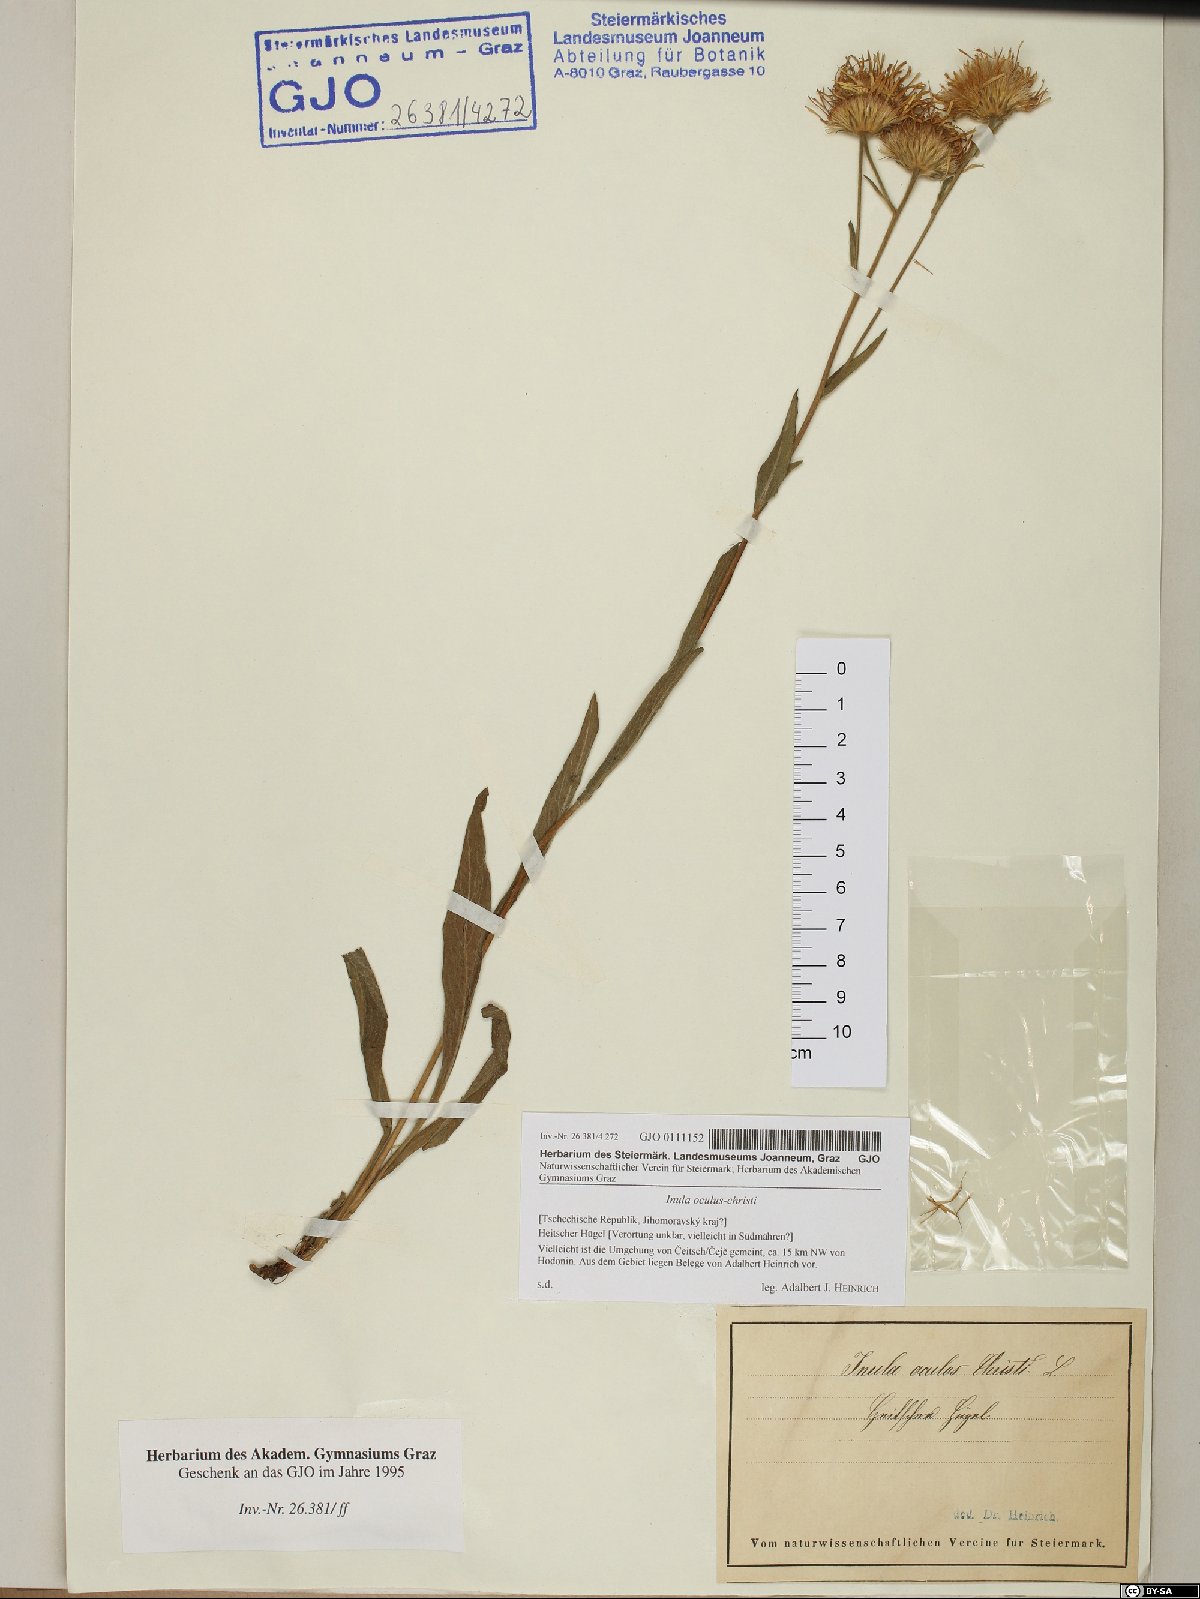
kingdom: Plantae
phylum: Tracheophyta
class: Magnoliopsida
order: Asterales
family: Asteraceae
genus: Pentanema
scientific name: Pentanema oculus-christi
